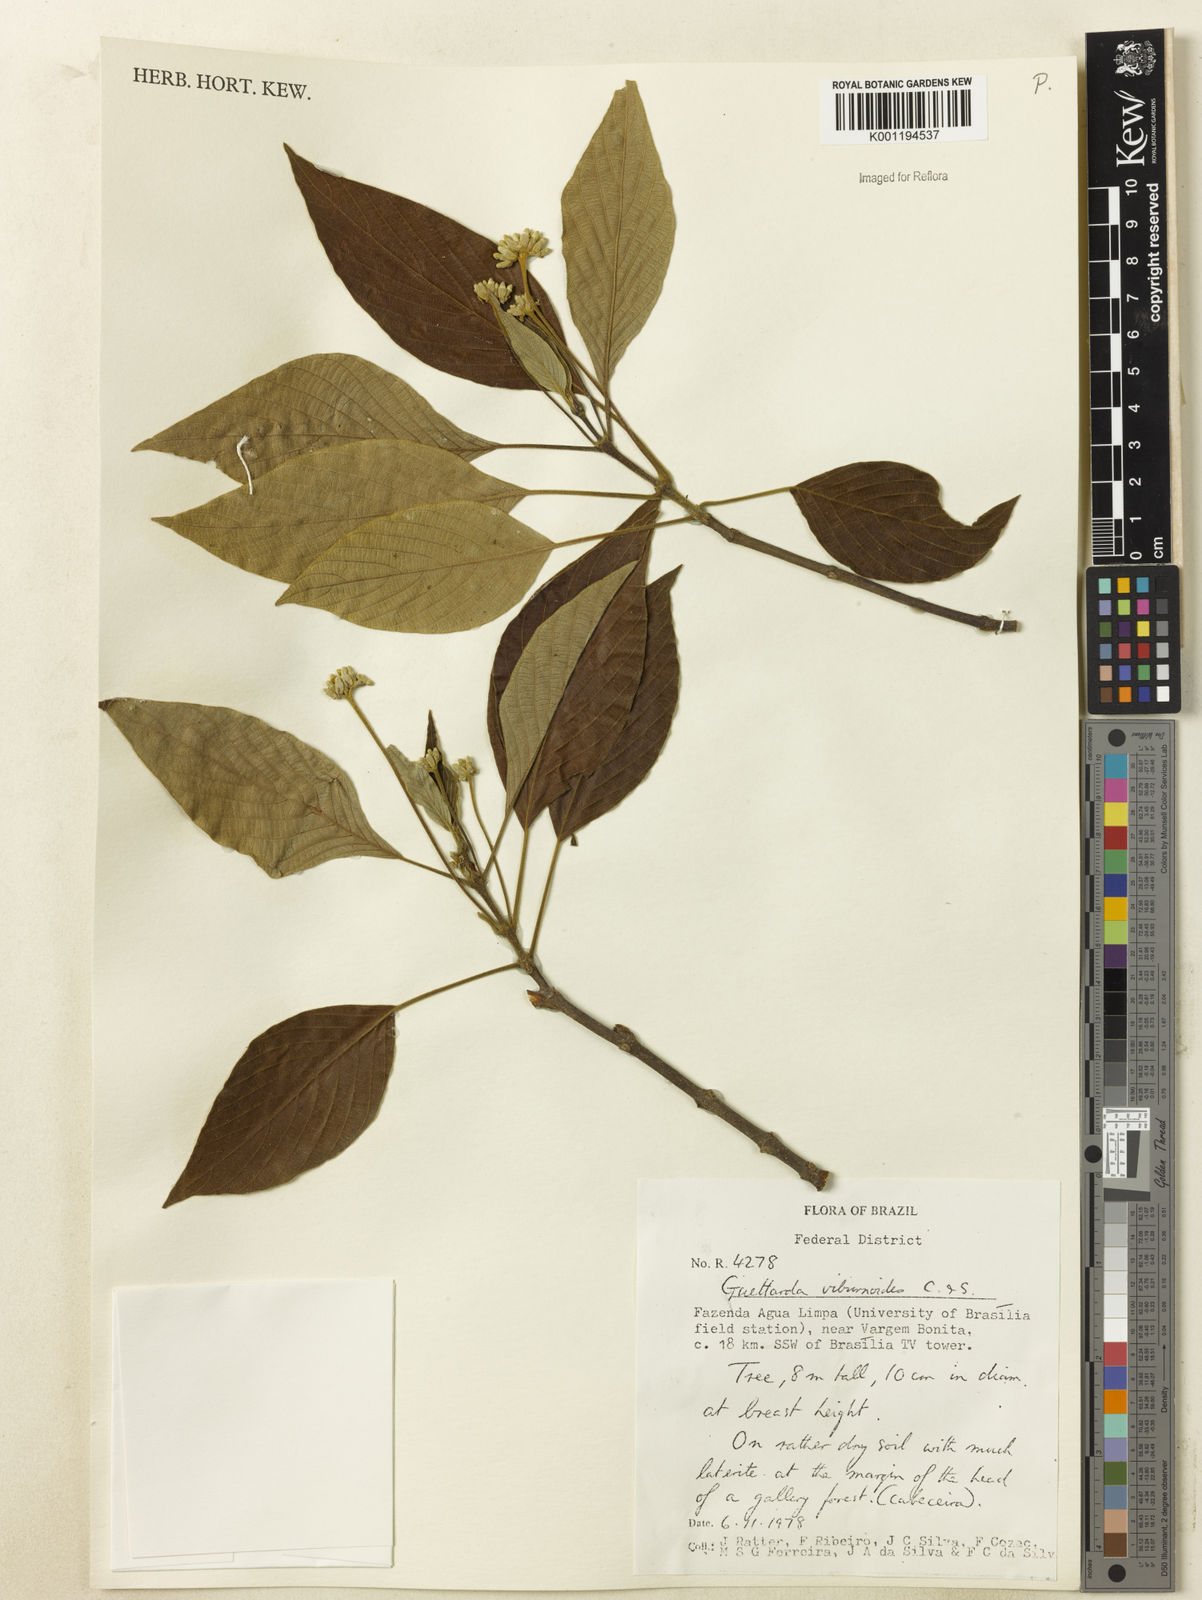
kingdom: Plantae
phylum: Tracheophyta
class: Magnoliopsida
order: Gentianales
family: Rubiaceae
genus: Guettarda
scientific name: Guettarda viburnoides
